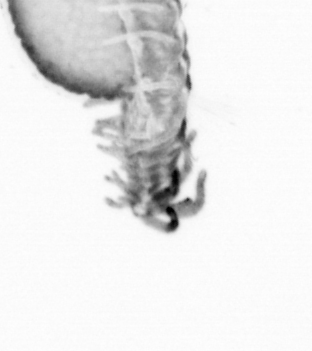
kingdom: Animalia
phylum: Annelida
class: Polychaeta
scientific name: Polychaeta
